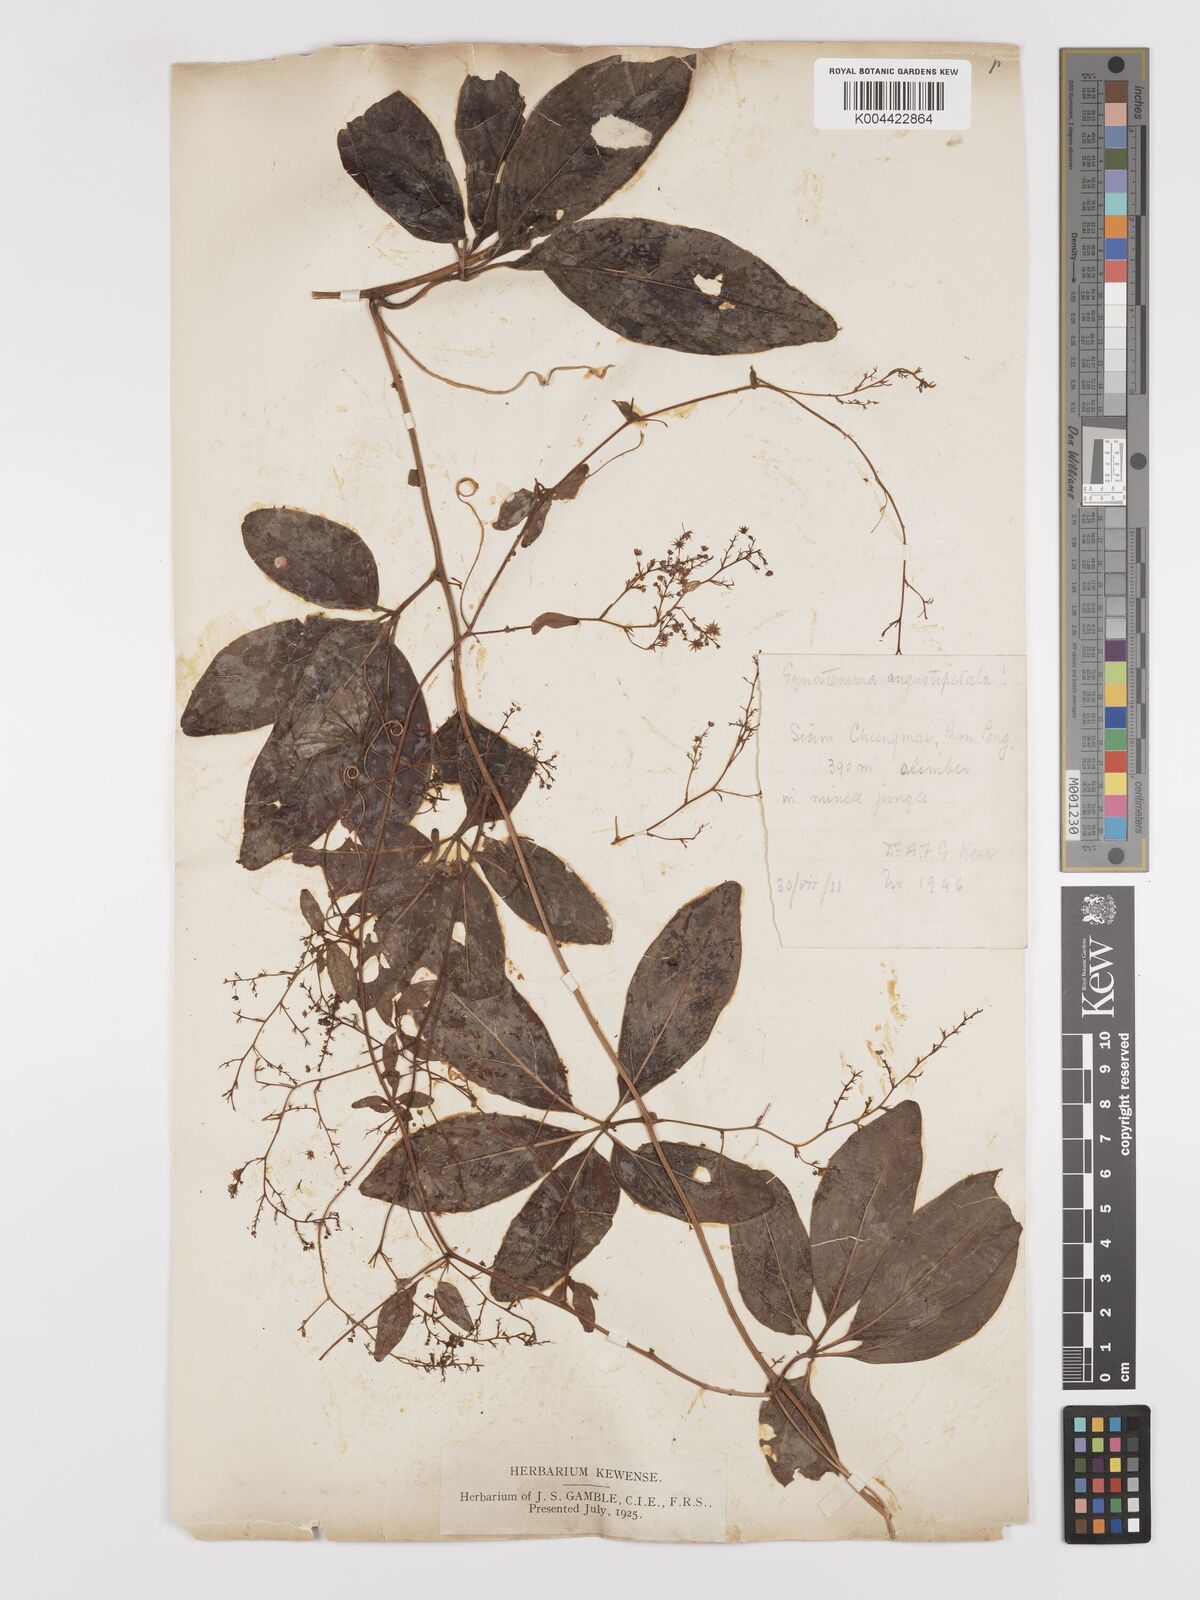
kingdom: Plantae
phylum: Tracheophyta
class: Magnoliopsida
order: Cucurbitales
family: Cucurbitaceae
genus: Neoalsomitra
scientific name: Neoalsomitra angustipetala
